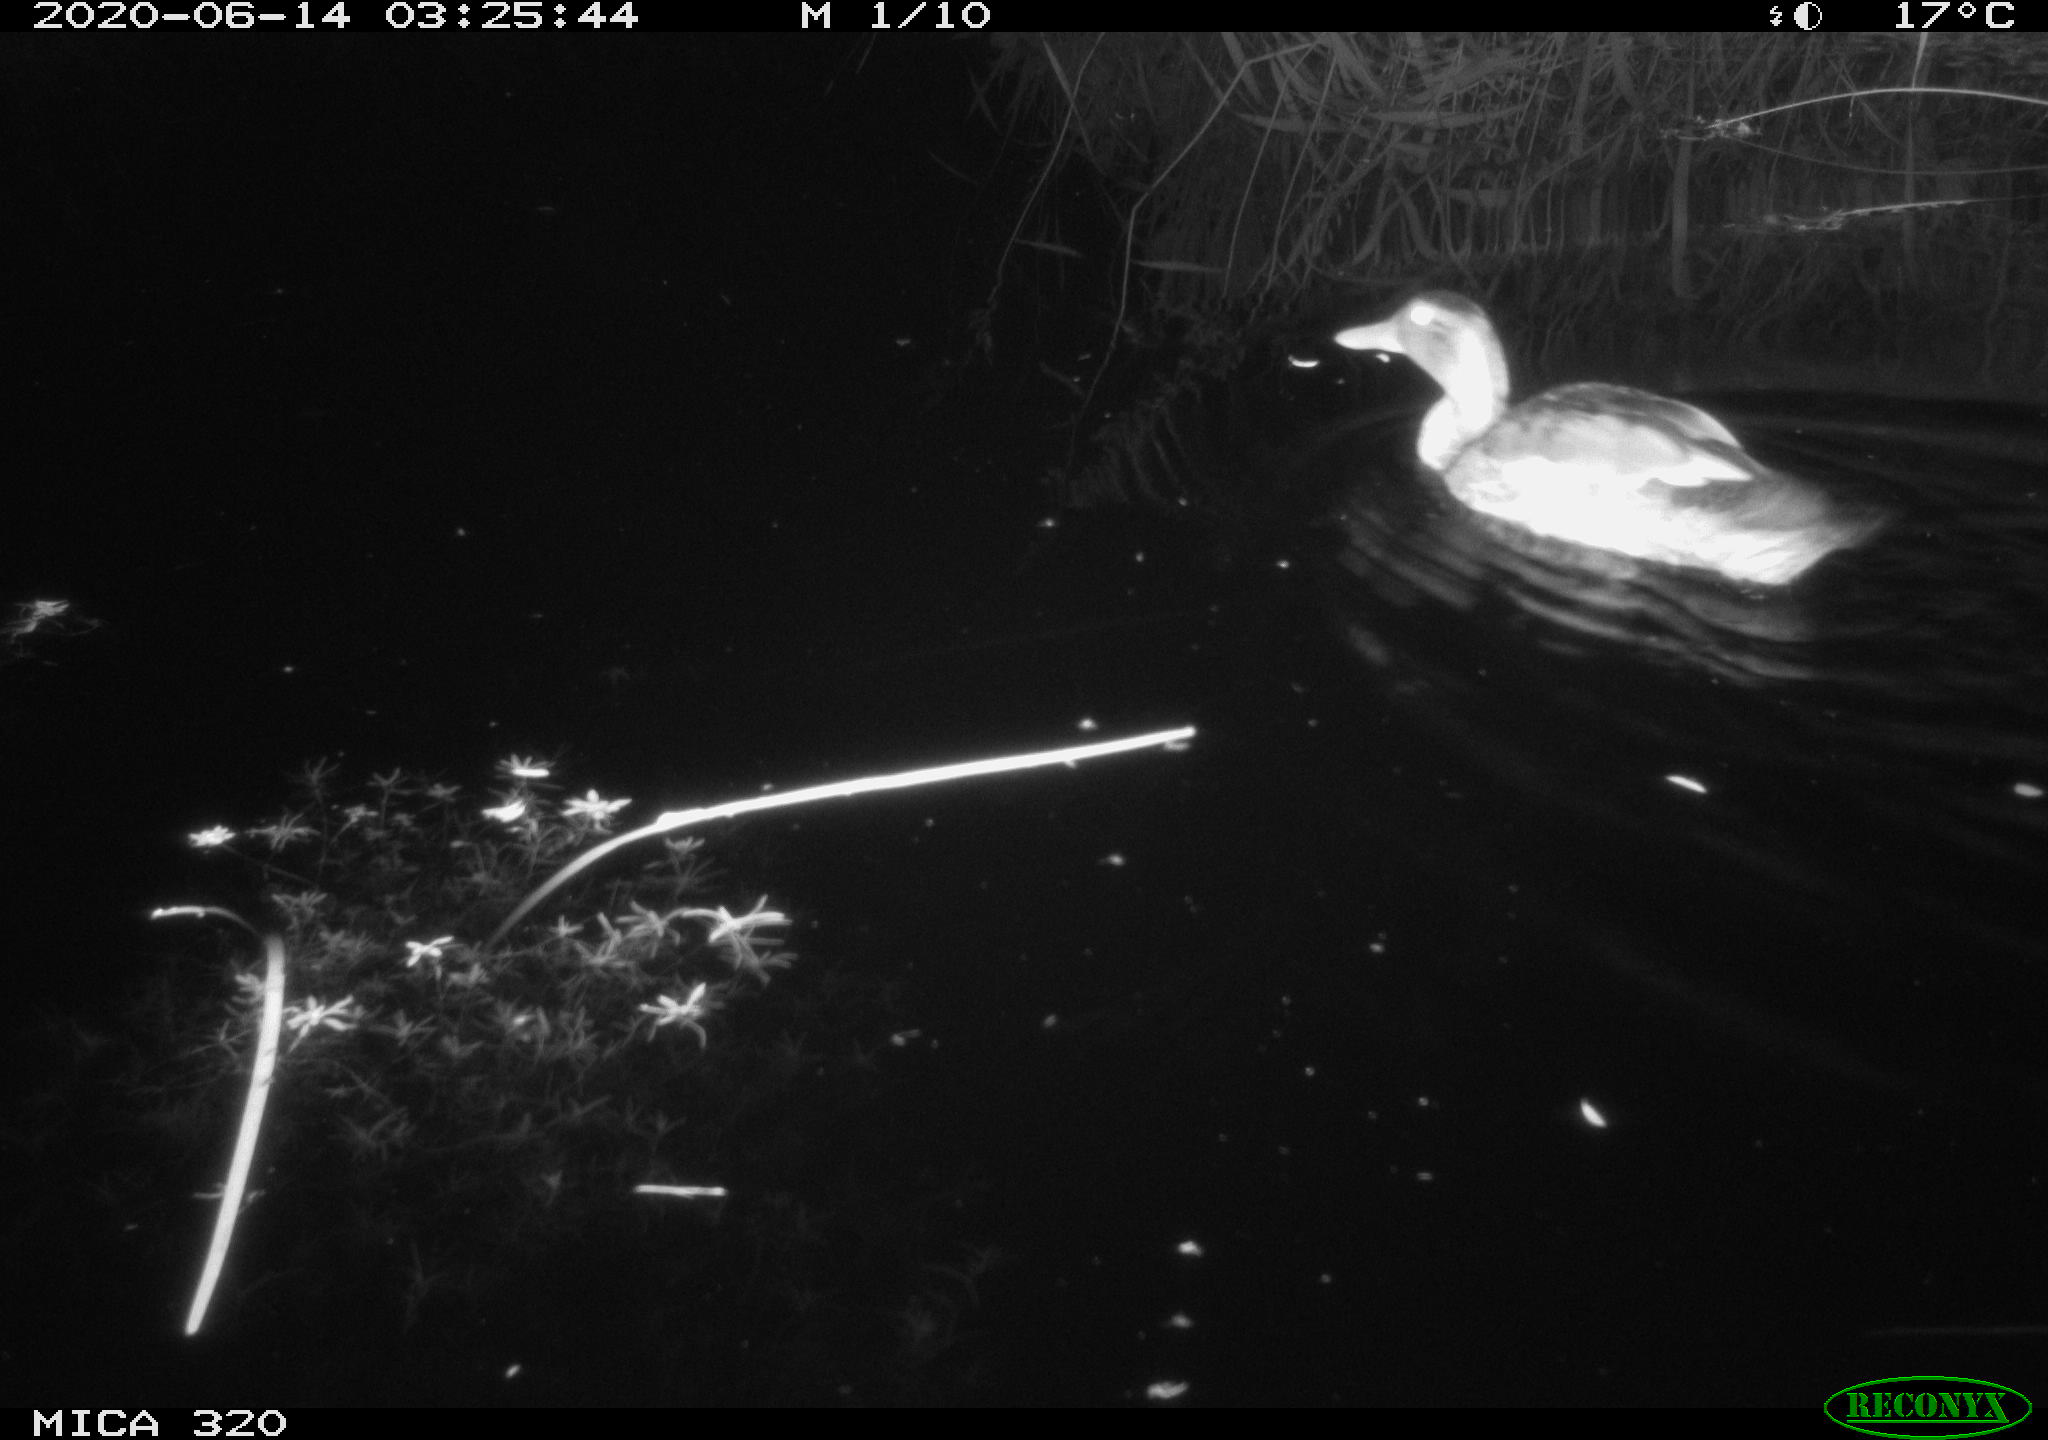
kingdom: Animalia
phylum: Chordata
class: Aves
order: Anseriformes
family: Anatidae
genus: Anas
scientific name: Anas platyrhynchos
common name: Mallard
